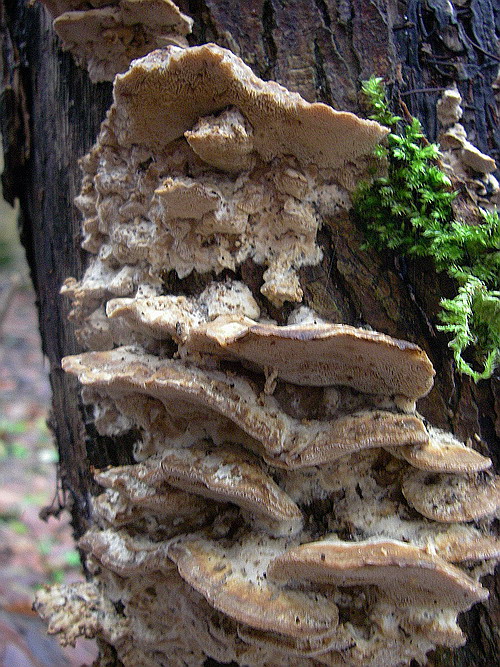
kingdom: Fungi
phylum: Basidiomycota
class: Agaricomycetes
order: Polyporales
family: Phanerochaetaceae
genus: Bjerkandera
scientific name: Bjerkandera fumosa
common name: grågul sodporesvamp
